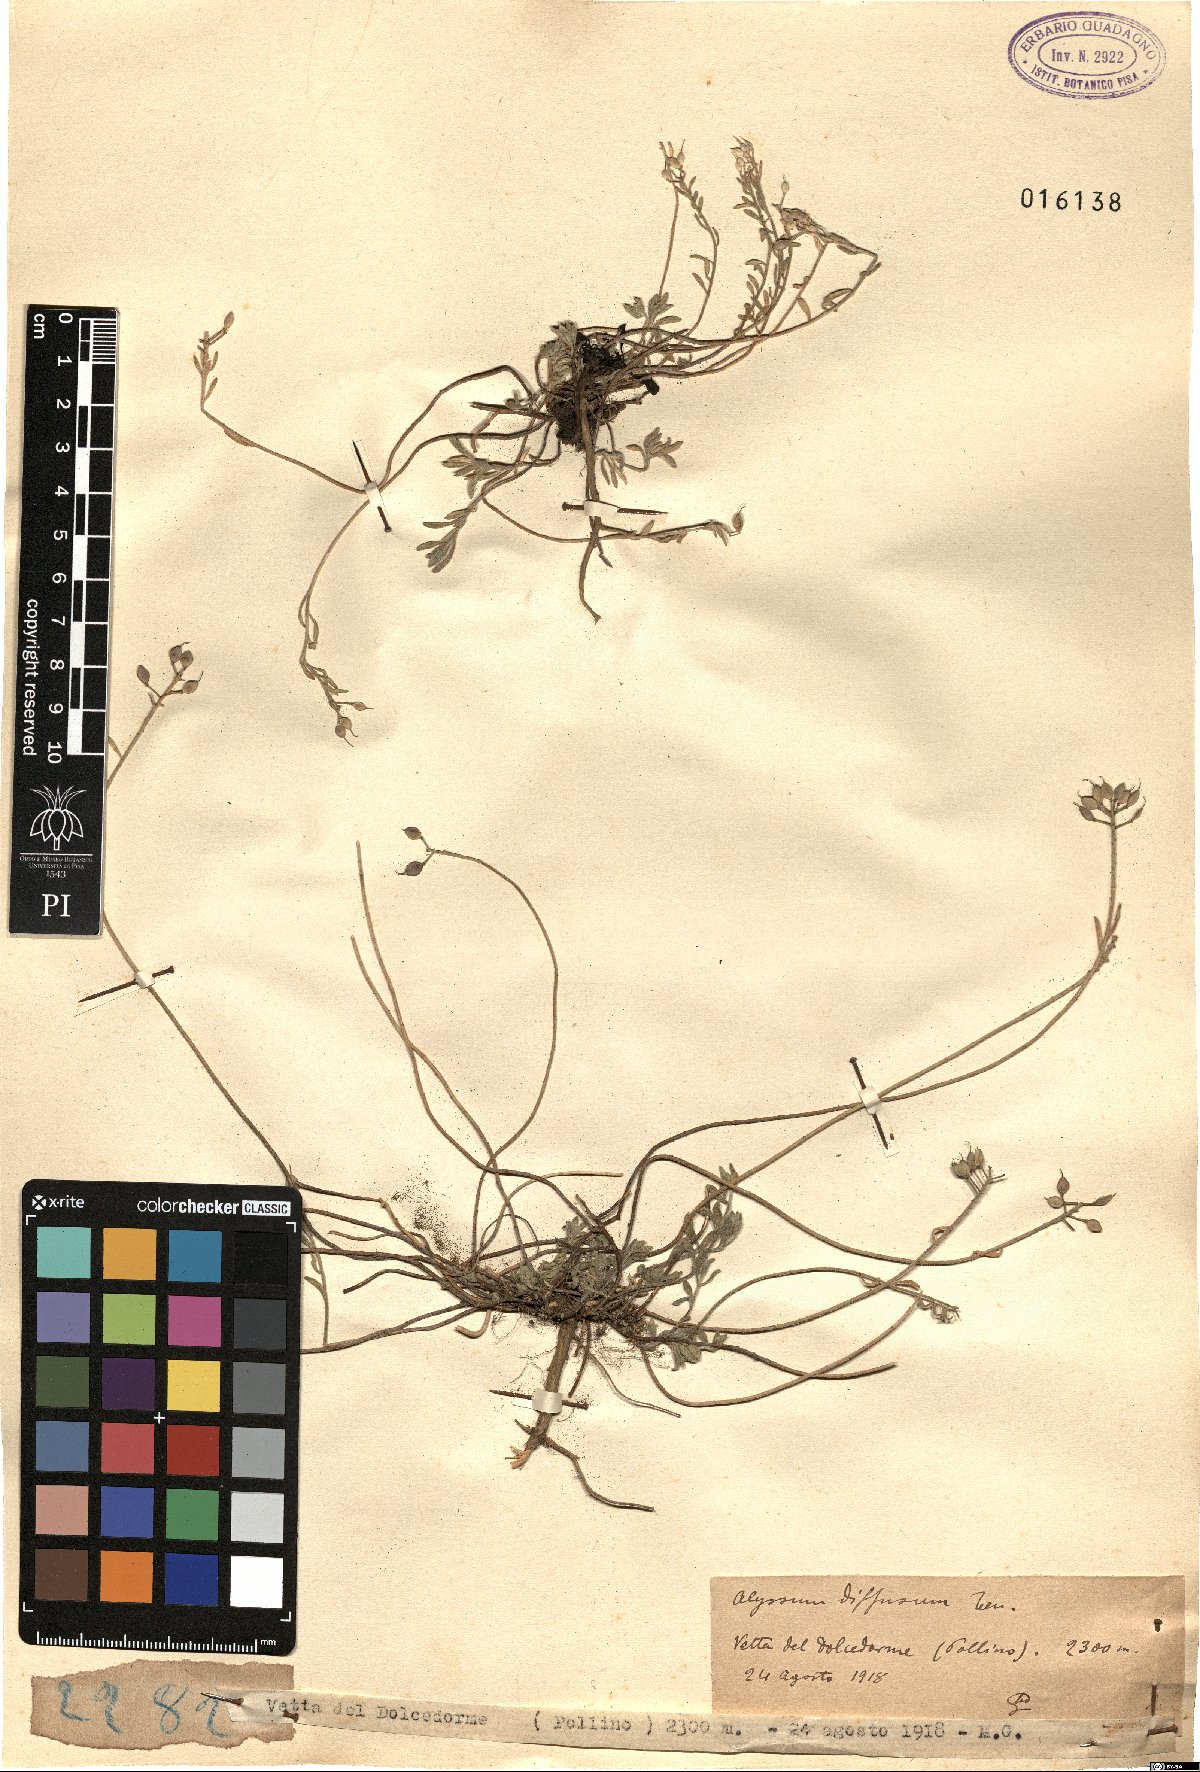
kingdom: Plantae
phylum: Tracheophyta
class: Magnoliopsida
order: Brassicales
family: Brassicaceae
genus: Alyssum
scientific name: Alyssum diffusum
